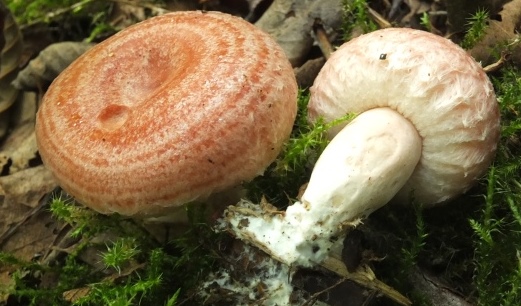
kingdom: Fungi
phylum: Basidiomycota
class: Agaricomycetes
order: Russulales
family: Russulaceae
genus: Lactarius
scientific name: Lactarius torminosus
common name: skægget mælkehat
